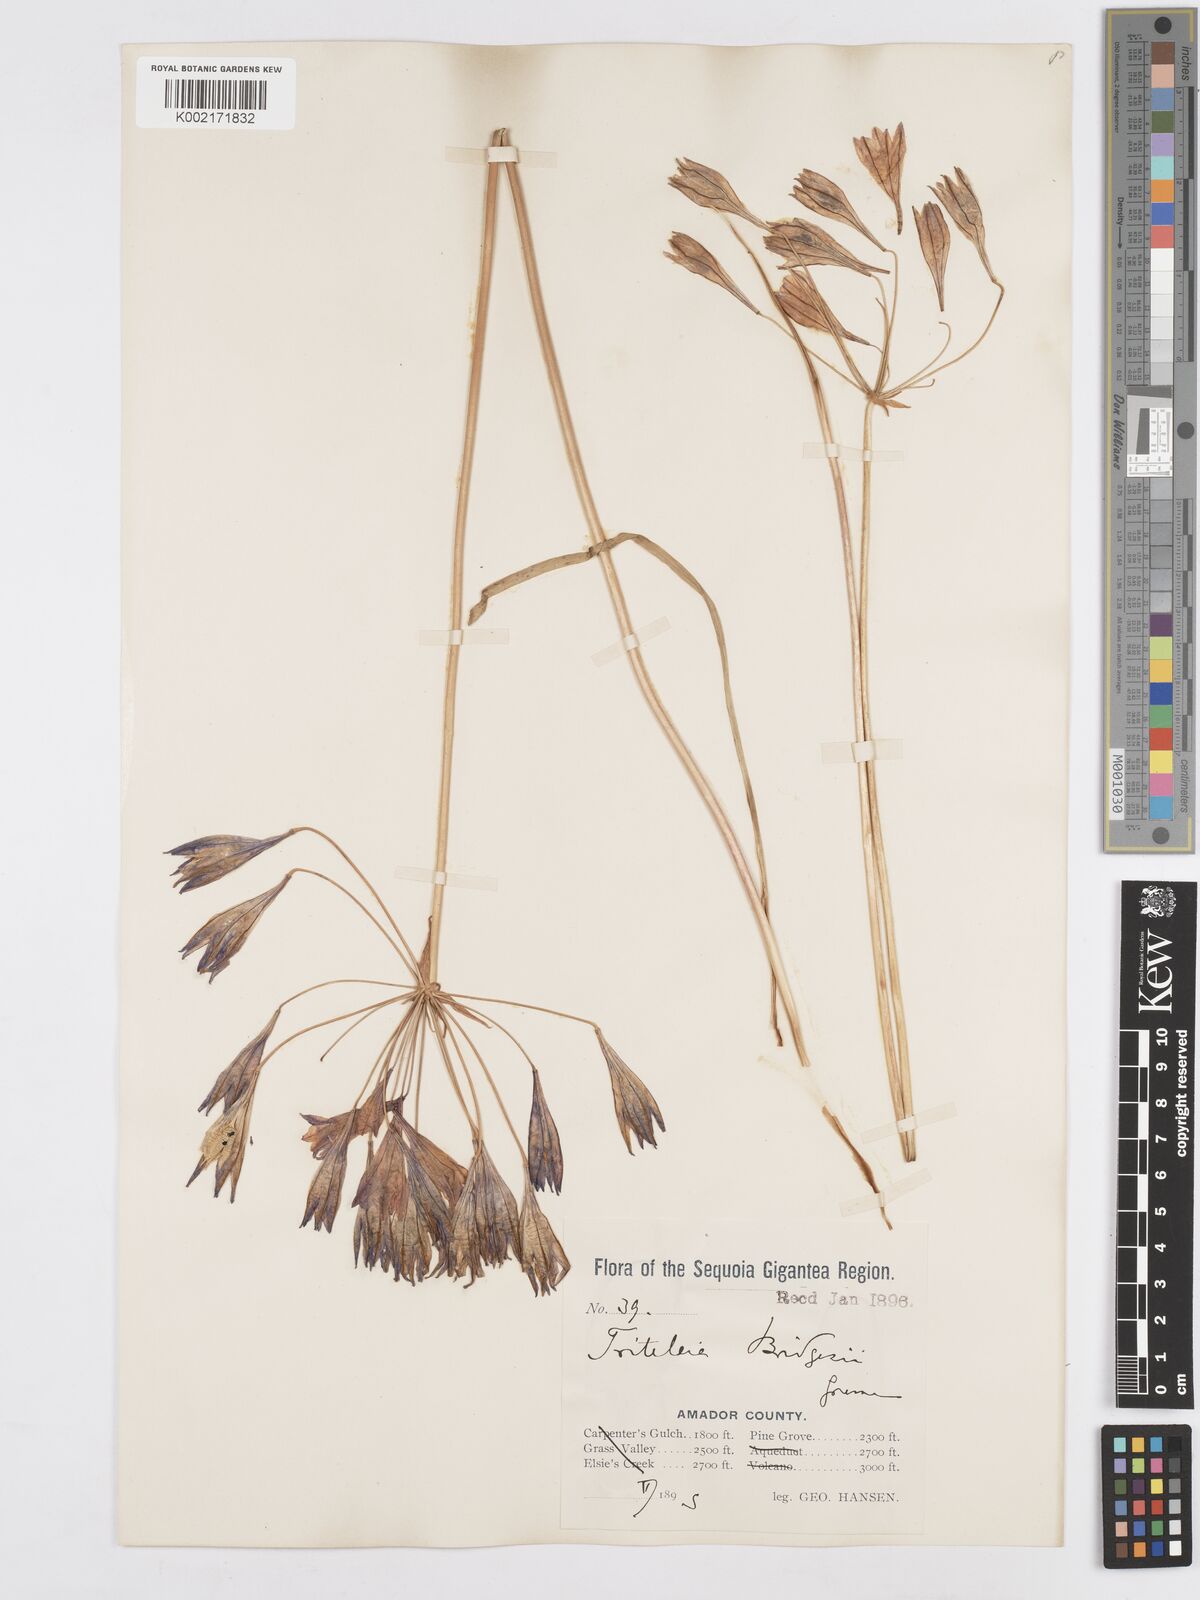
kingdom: Plantae
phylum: Tracheophyta
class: Liliopsida
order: Asparagales
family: Asparagaceae
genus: Triteleia
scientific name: Triteleia bridgesii
